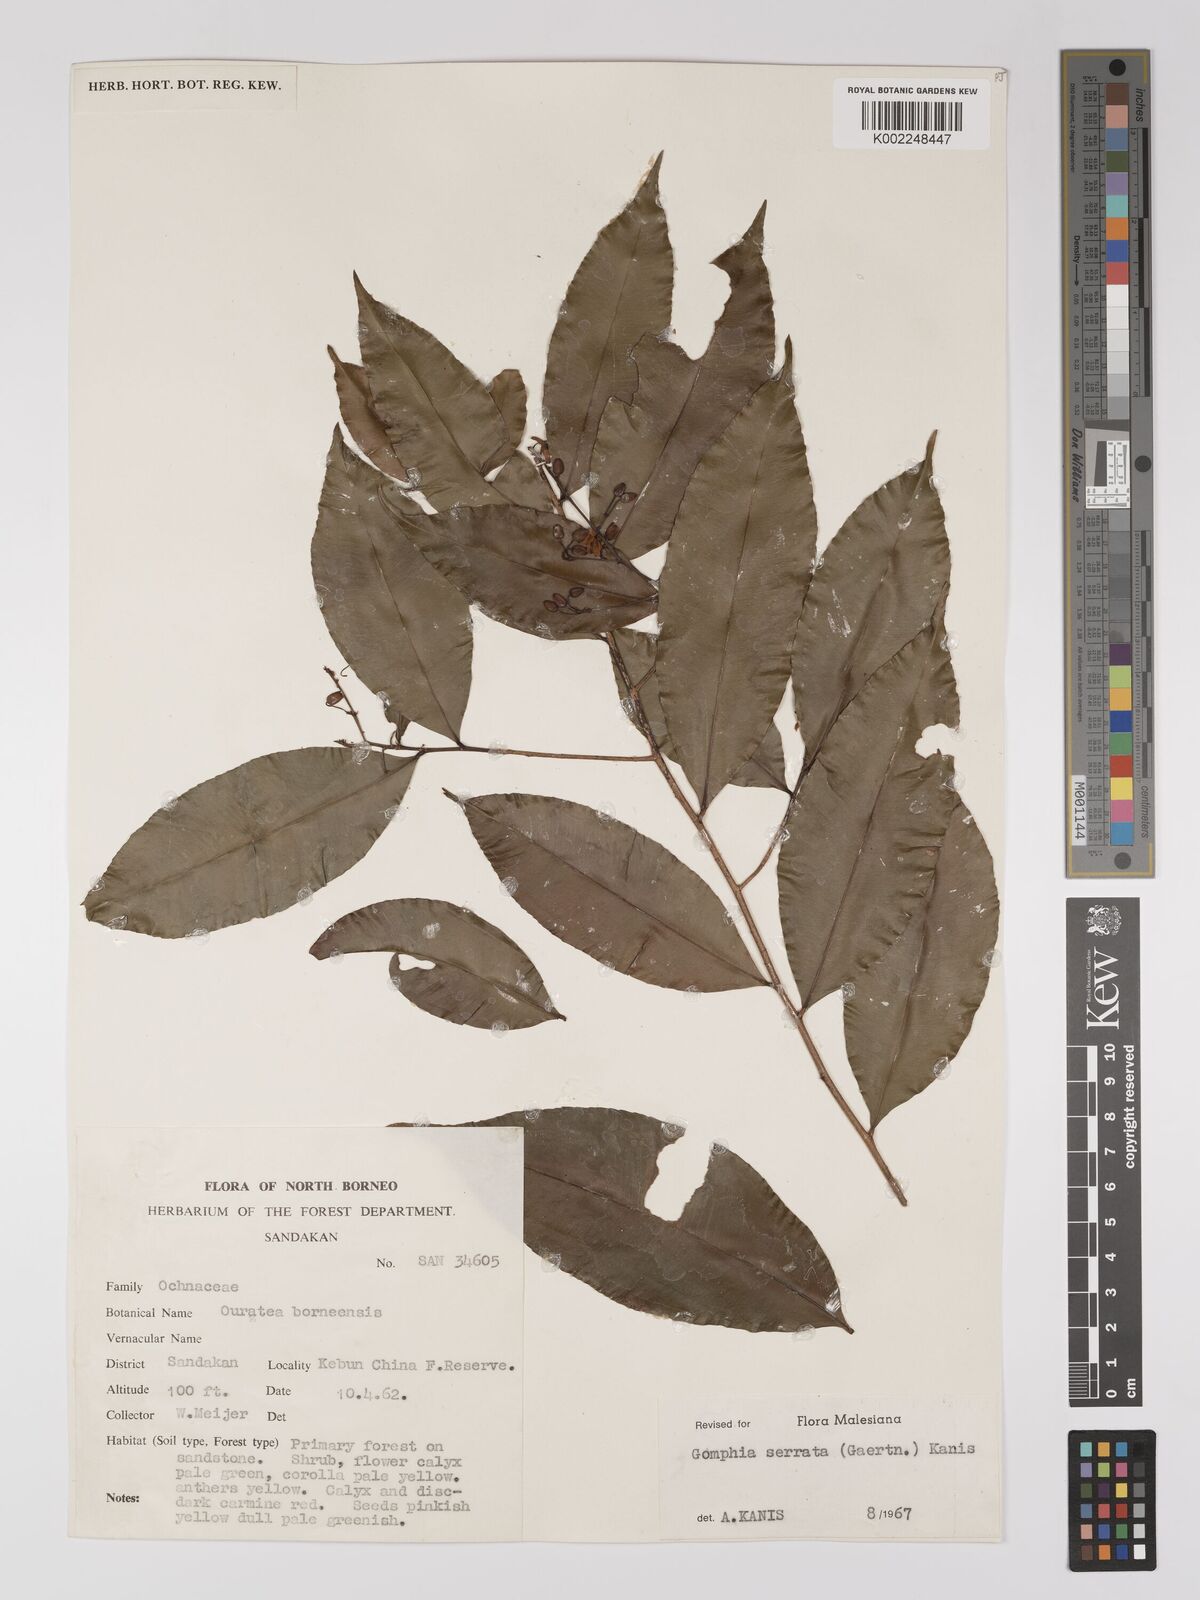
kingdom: Plantae
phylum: Tracheophyta
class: Magnoliopsida
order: Malpighiales
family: Ochnaceae
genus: Gomphia
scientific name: Gomphia serrata
